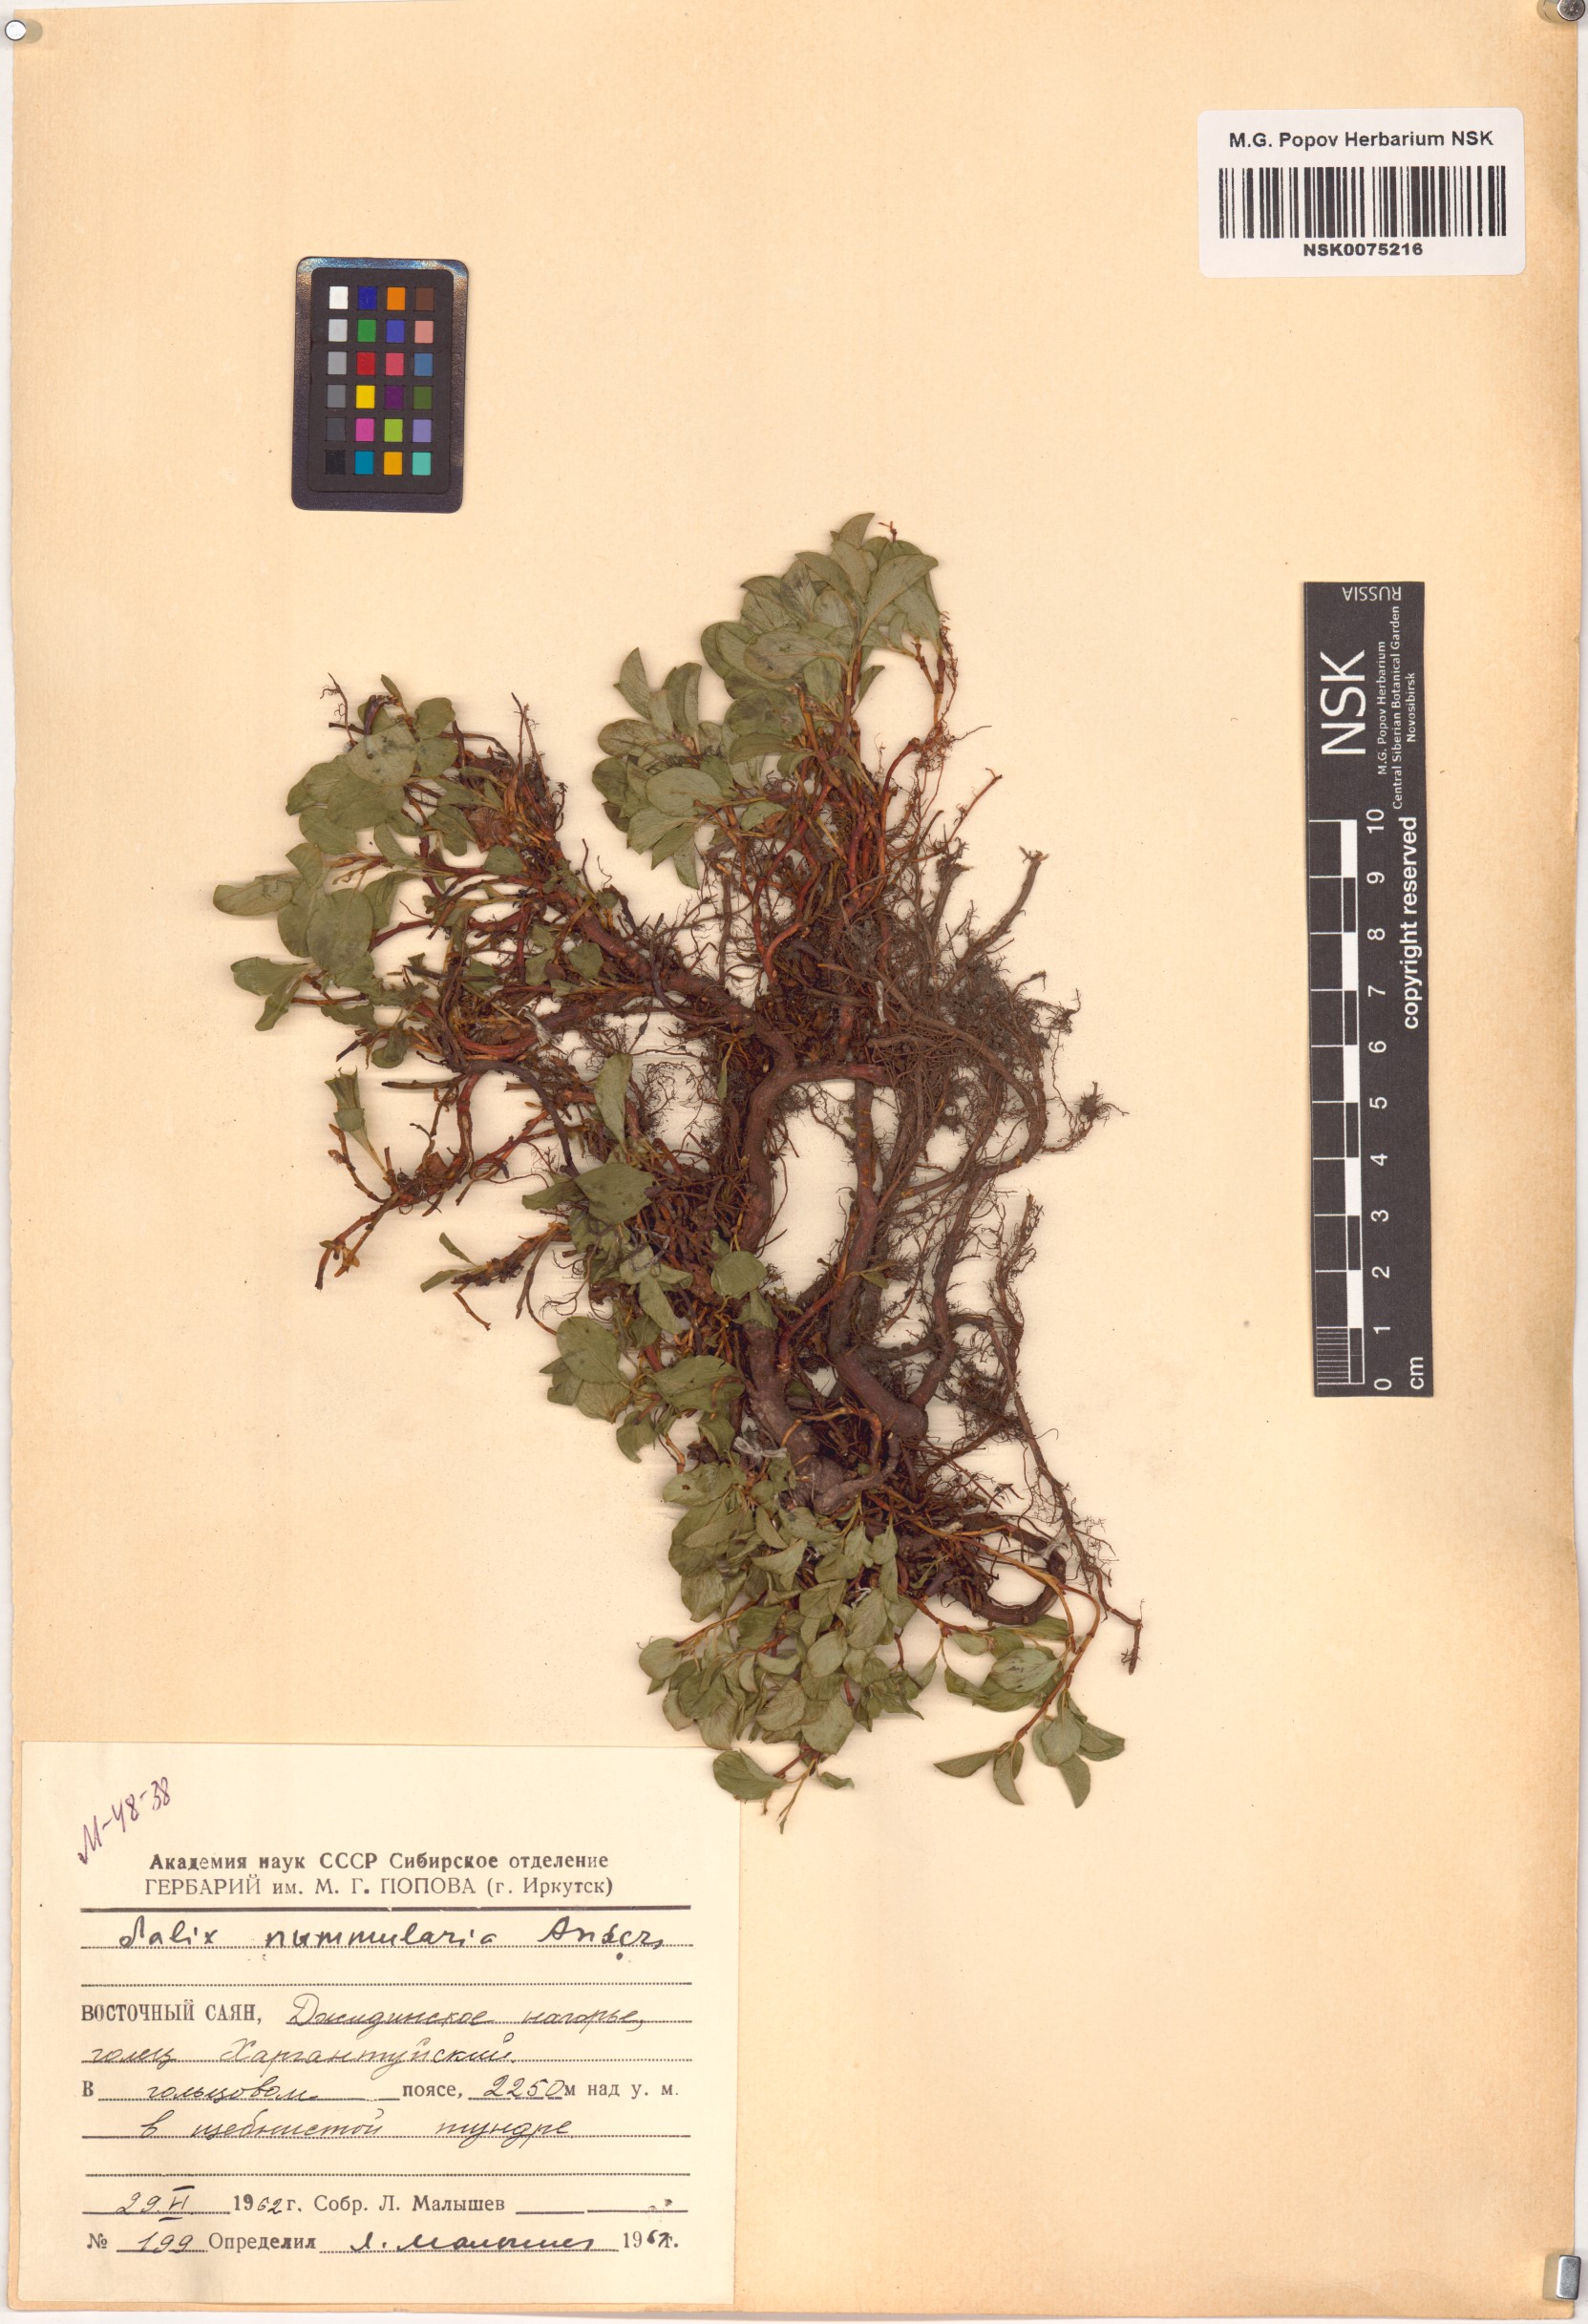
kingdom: Plantae
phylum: Tracheophyta
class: Magnoliopsida
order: Malpighiales
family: Salicaceae
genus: Salix
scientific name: Salix nummularia
